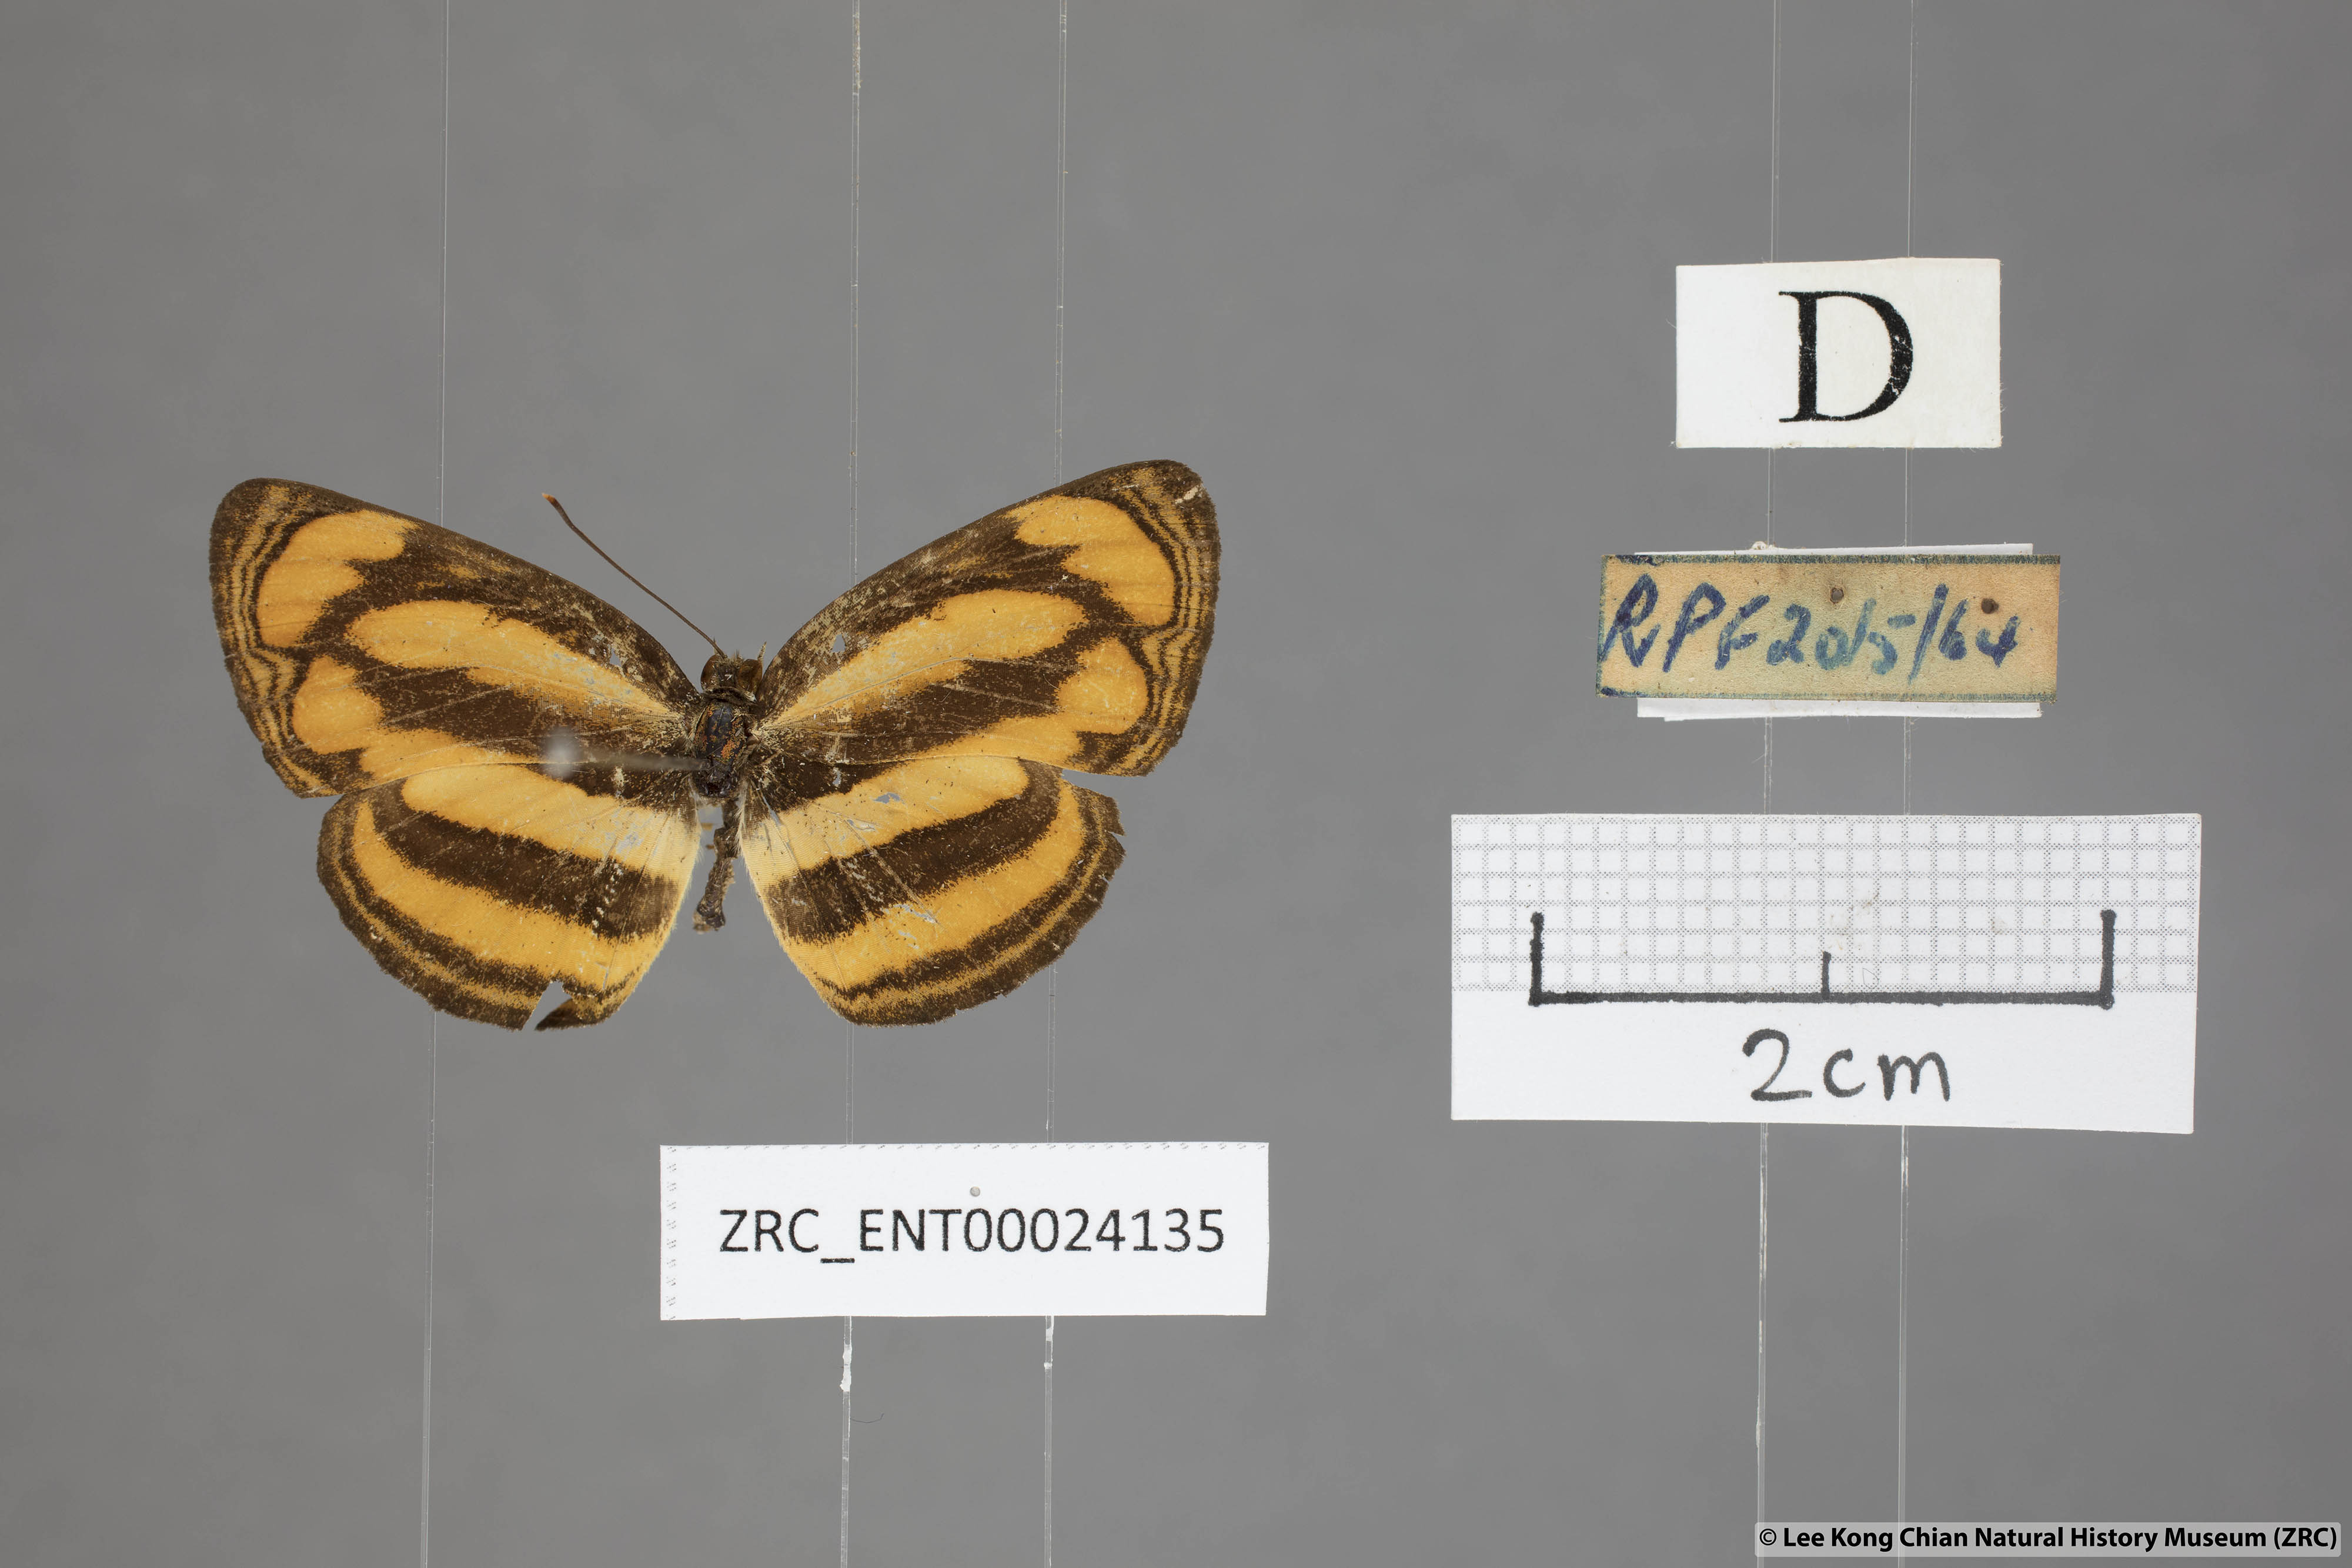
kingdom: Animalia
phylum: Arthropoda
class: Insecta
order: Lepidoptera
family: Nymphalidae
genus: Pantoporia
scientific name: Pantoporia paraka
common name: Perak lascar
